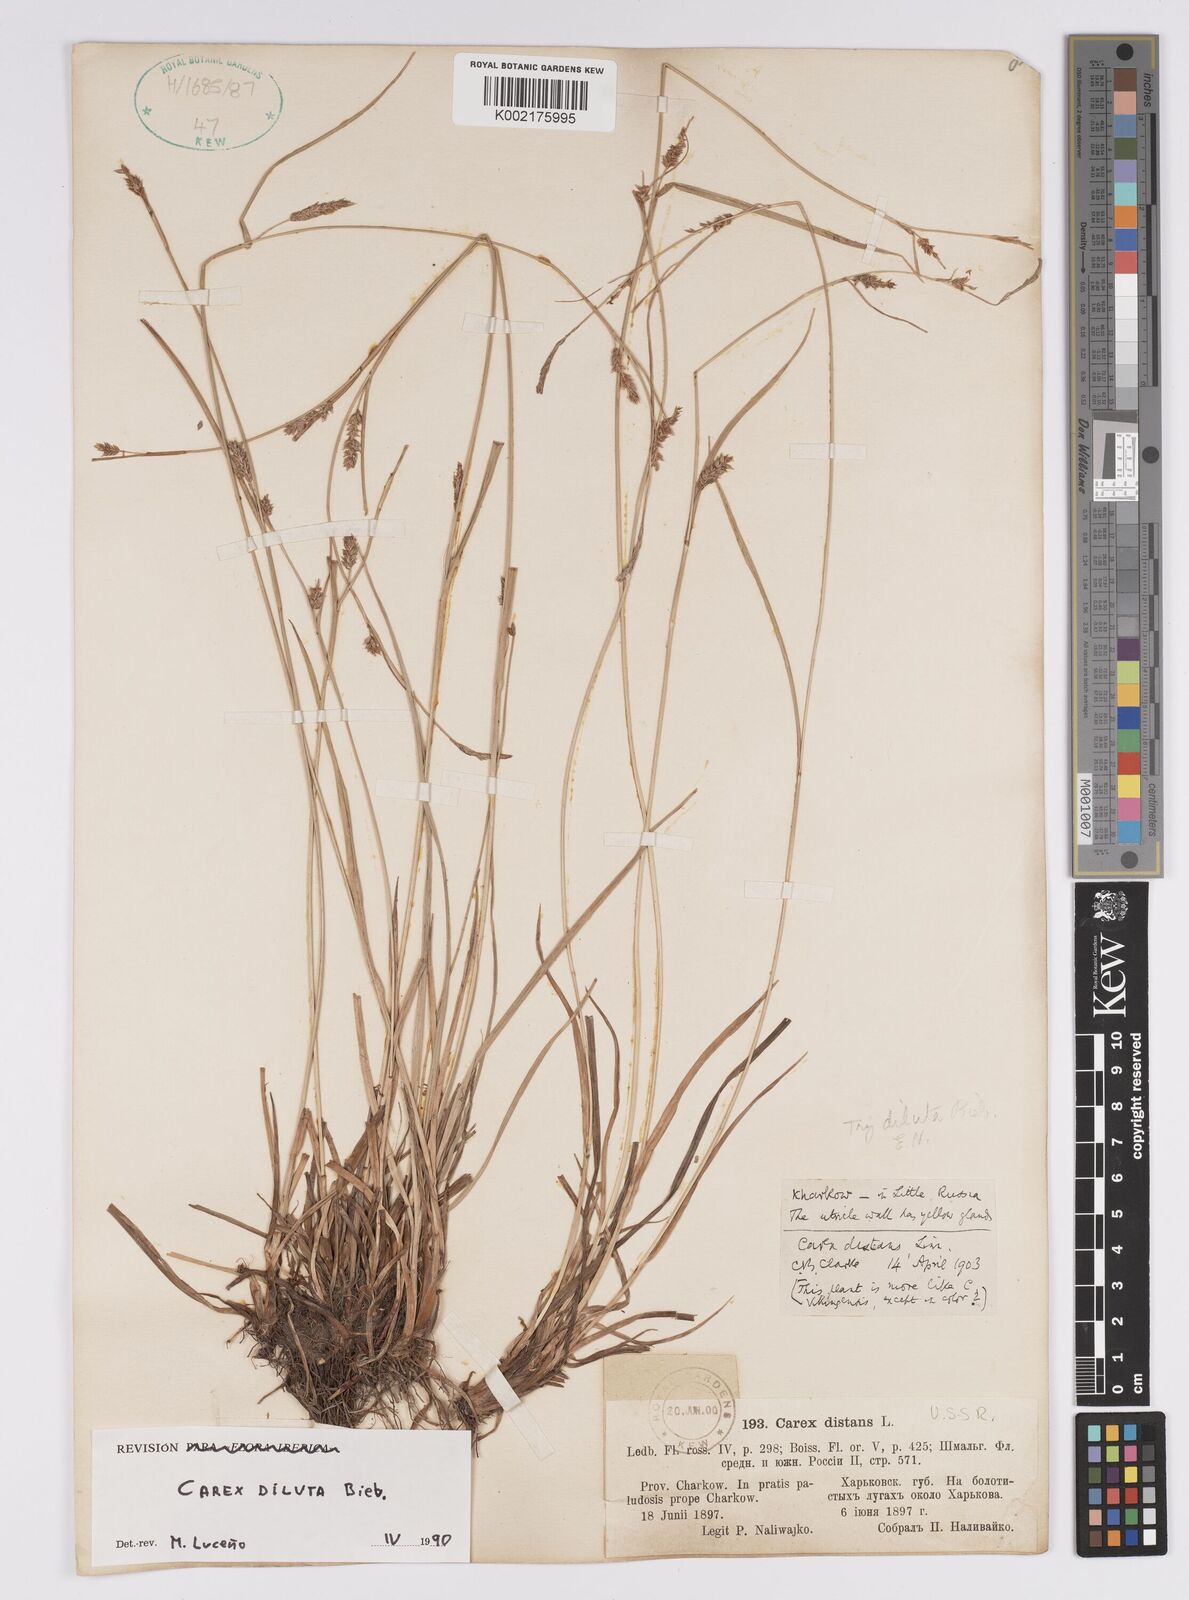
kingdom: Plantae
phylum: Tracheophyta
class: Liliopsida
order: Poales
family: Cyperaceae
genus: Carex
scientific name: Carex diluta
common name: Sedge
